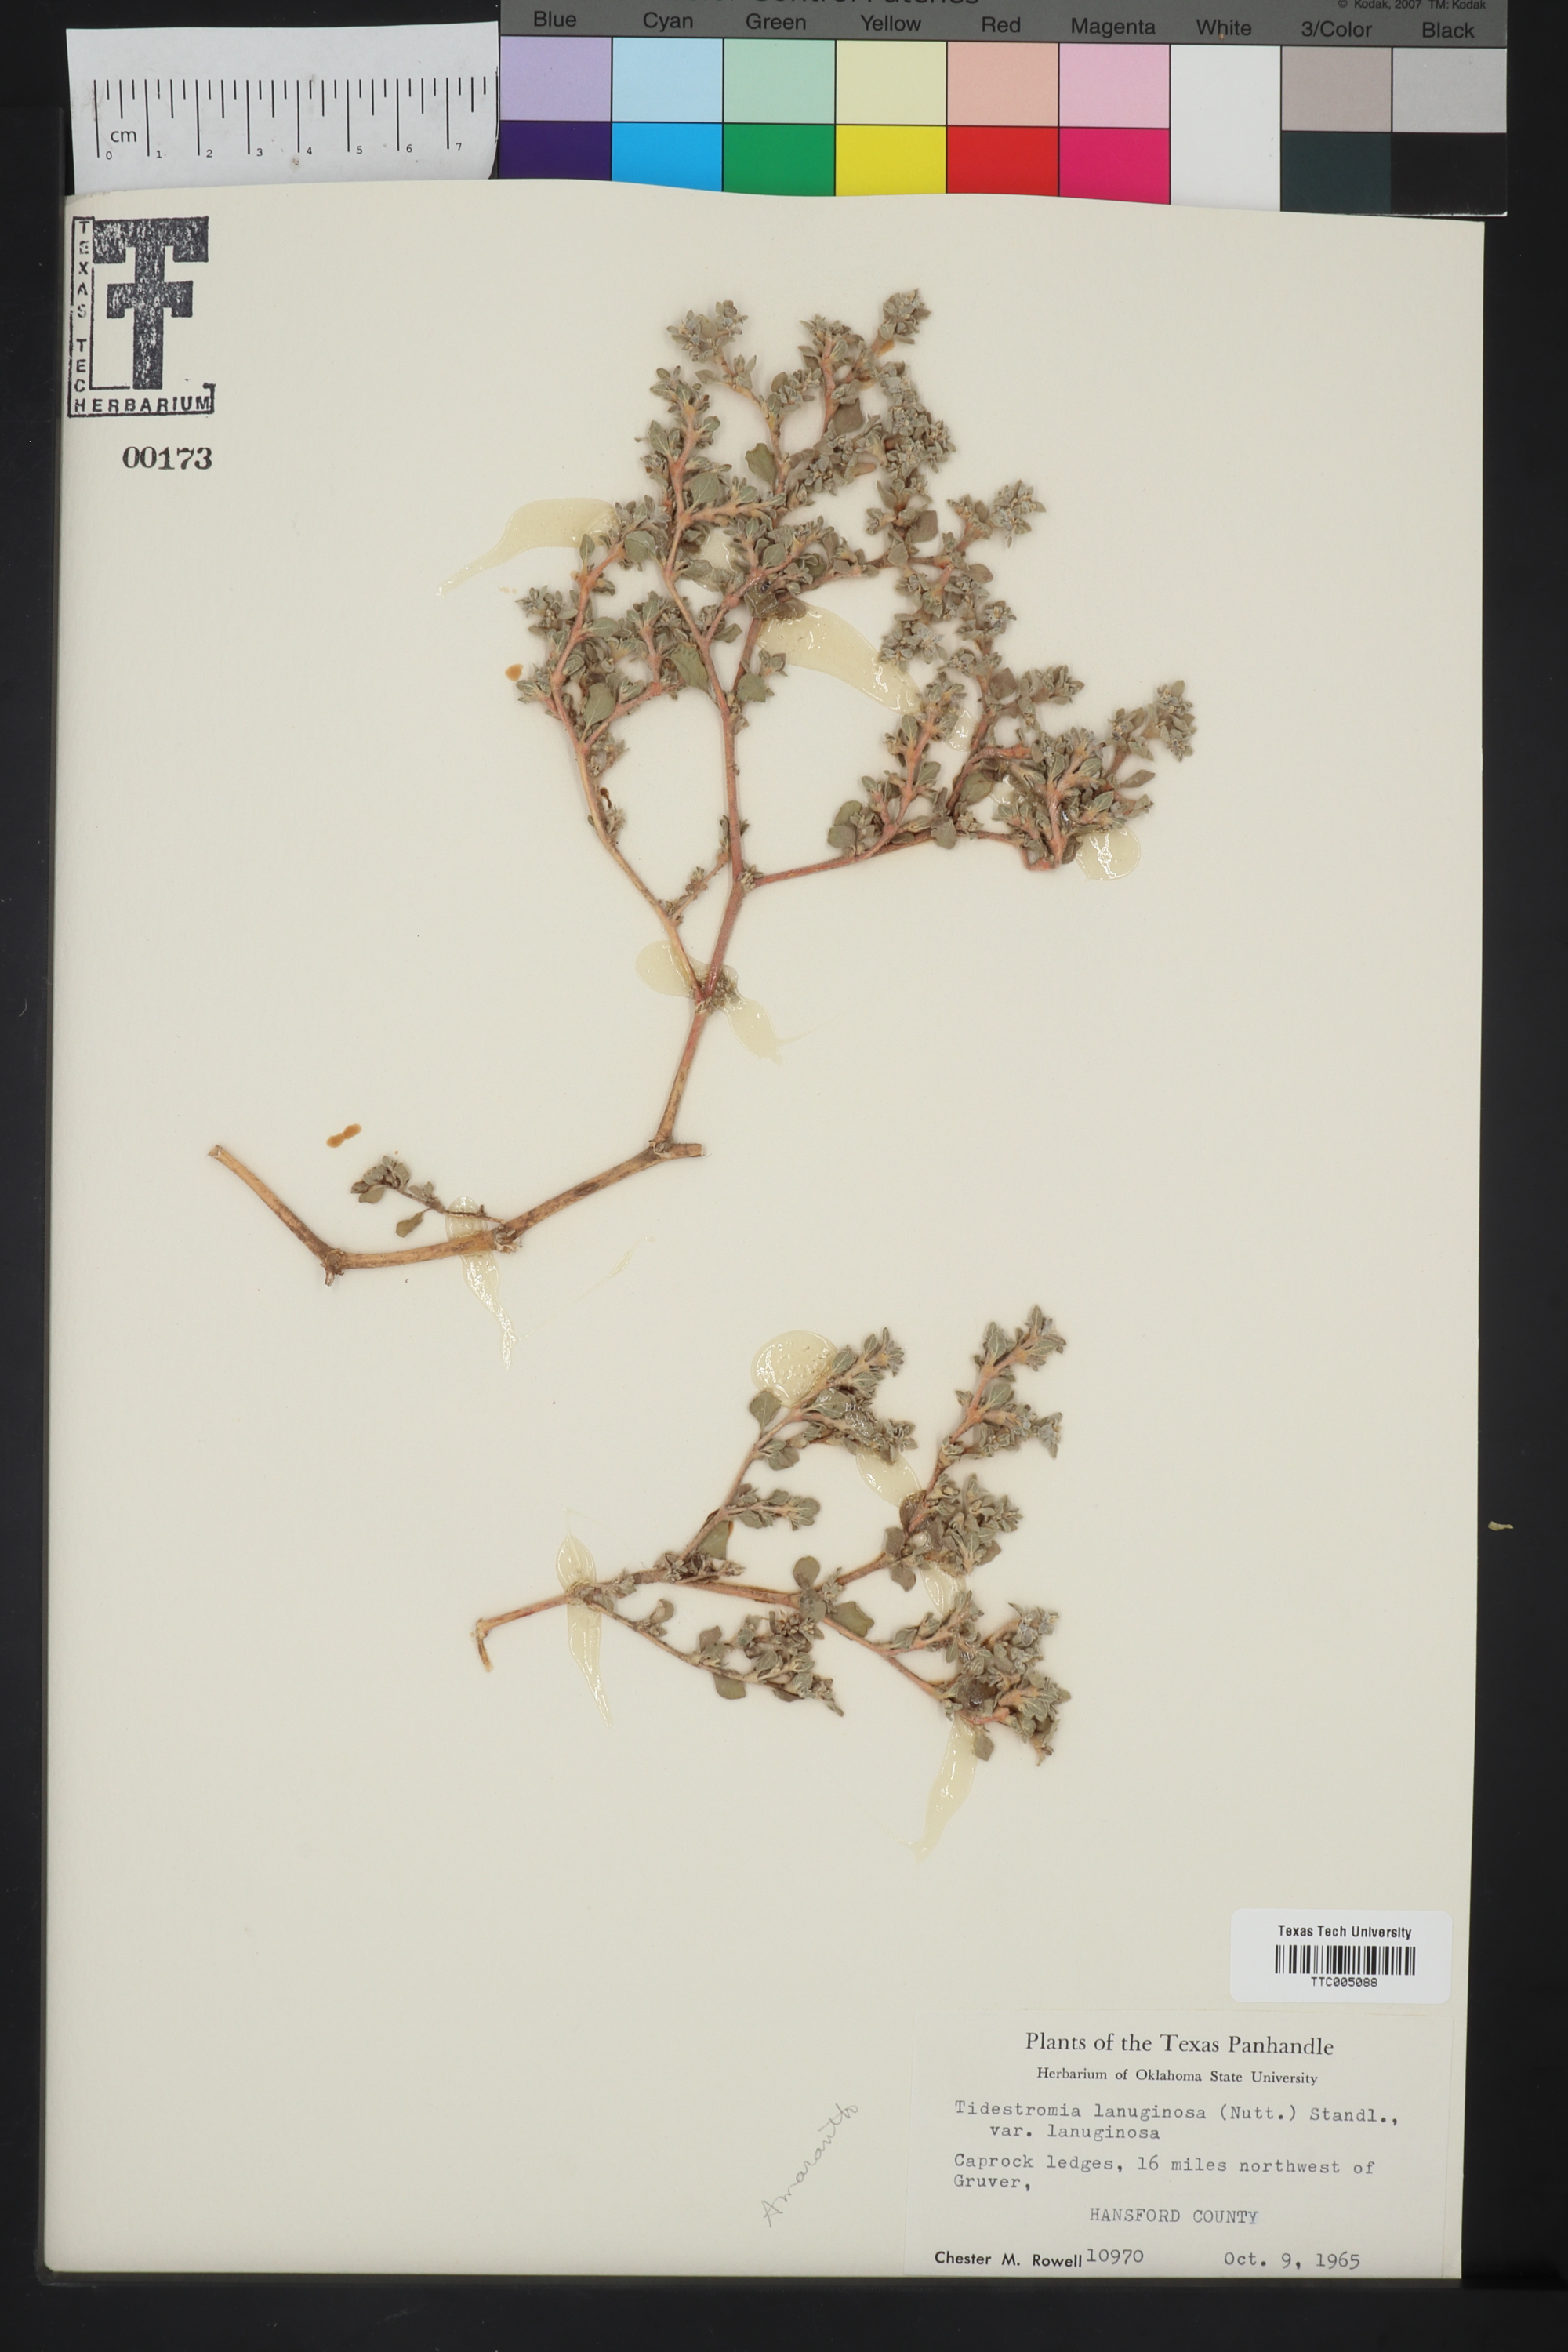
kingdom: Plantae
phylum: Tracheophyta
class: Magnoliopsida
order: Caryophyllales
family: Amaranthaceae
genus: Tidestromia
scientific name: Tidestromia lanuginosa
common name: Woolly tidestromia
